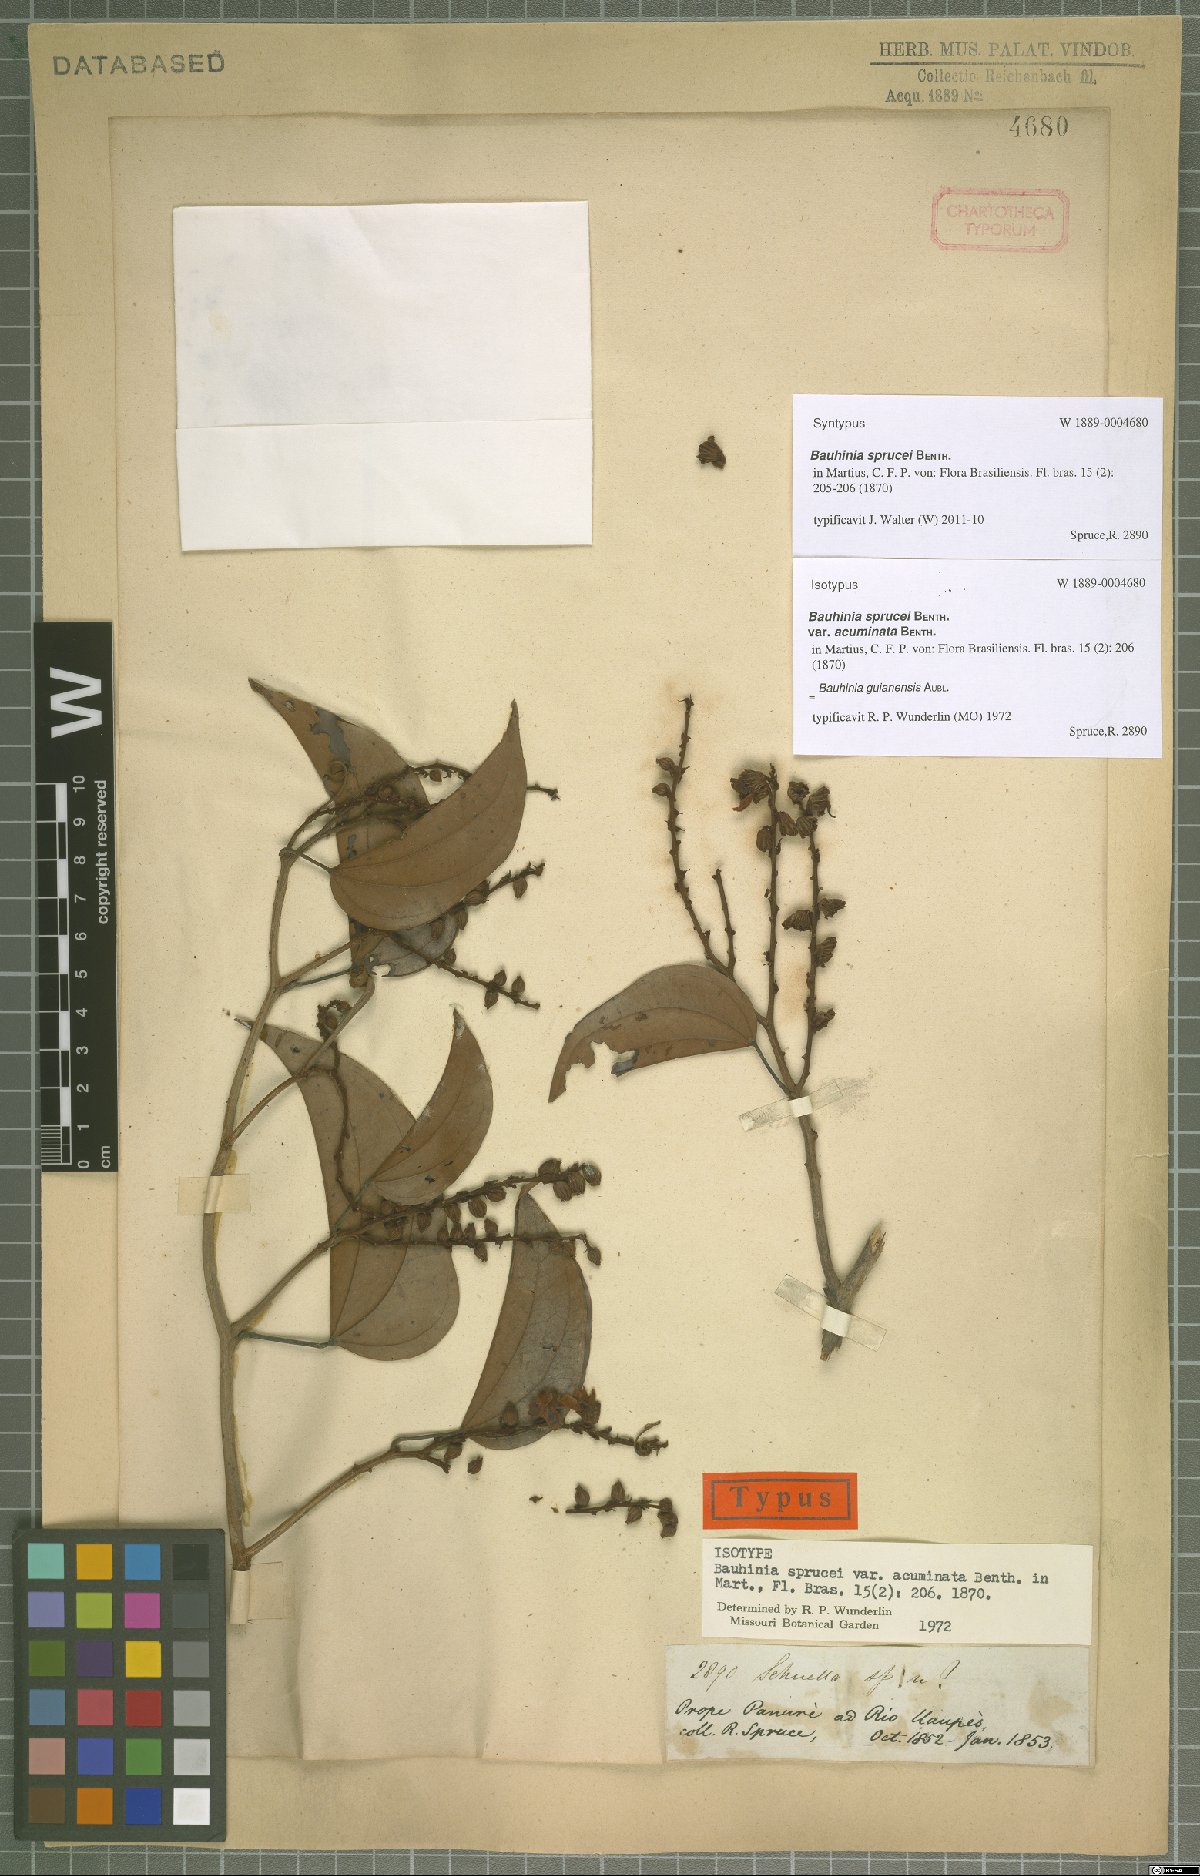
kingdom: Plantae
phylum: Tracheophyta
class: Magnoliopsida
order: Fabales
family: Fabaceae
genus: Schnella
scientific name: Schnella guianensis
